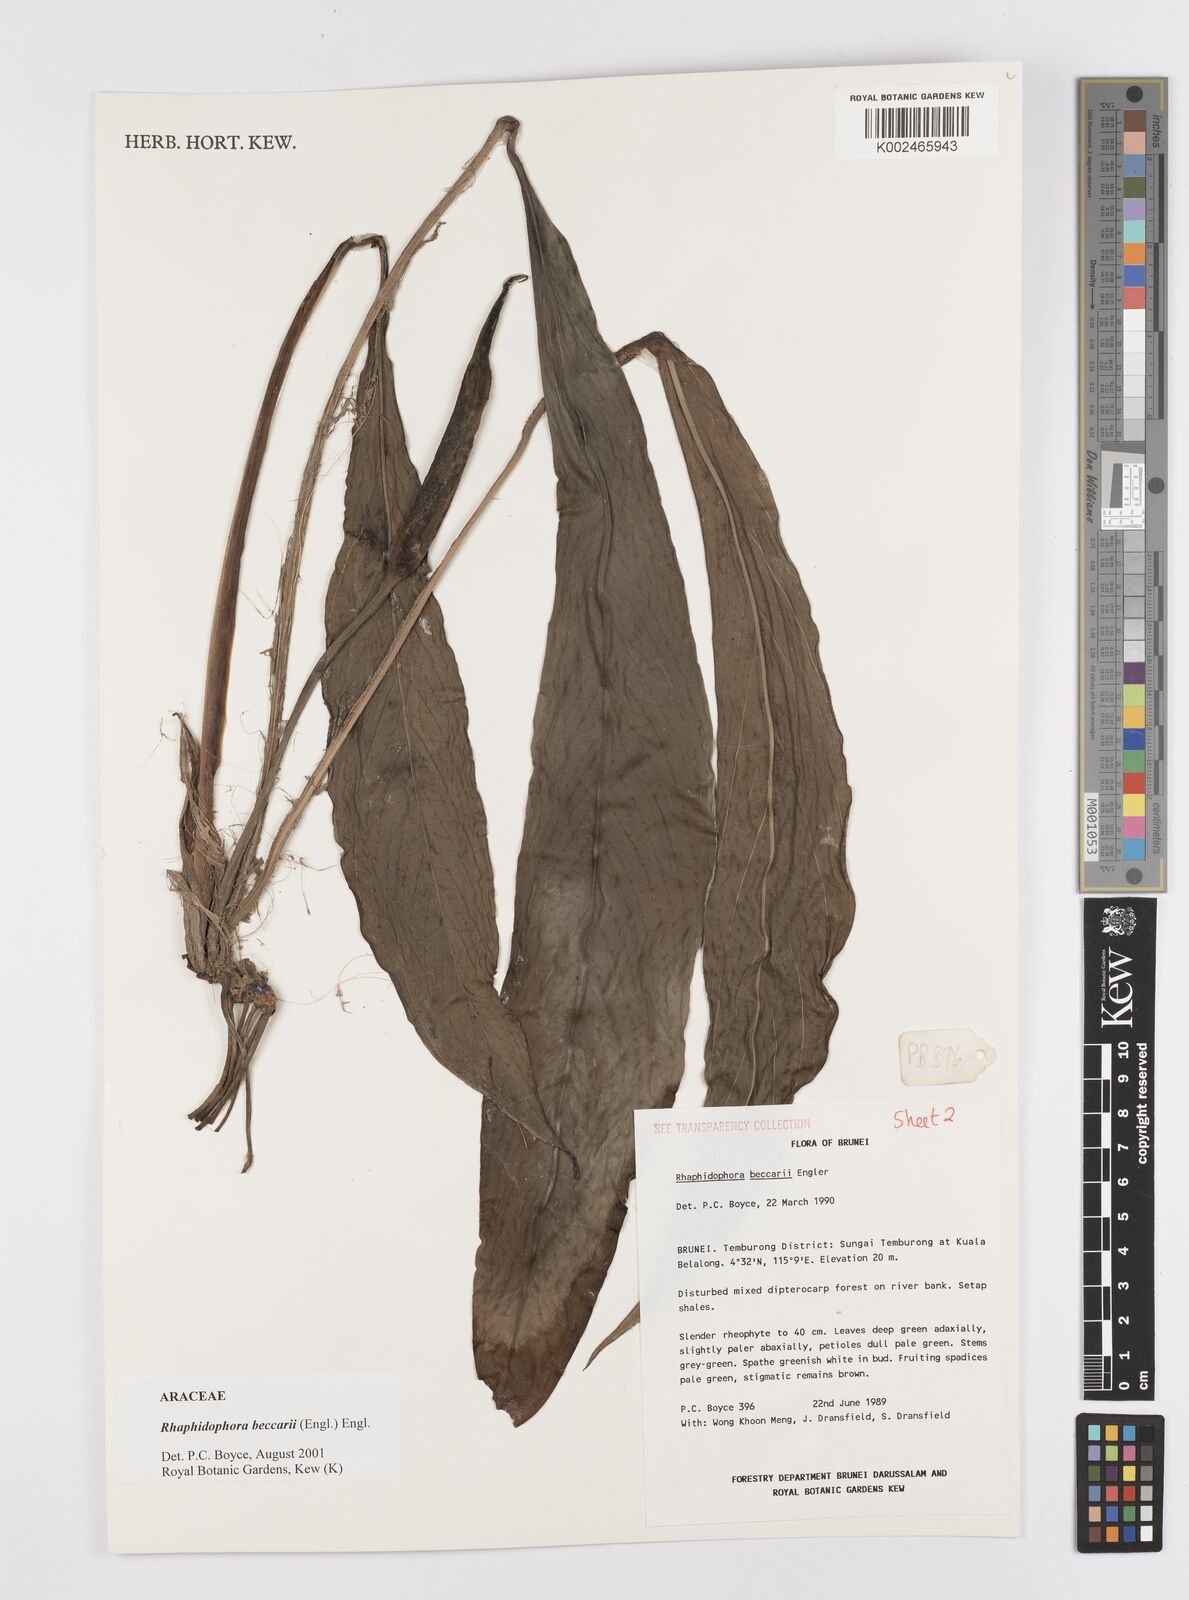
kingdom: Plantae
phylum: Tracheophyta
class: Liliopsida
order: Alismatales
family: Araceae
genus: Rhaphidophora
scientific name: Rhaphidophora beccarii
